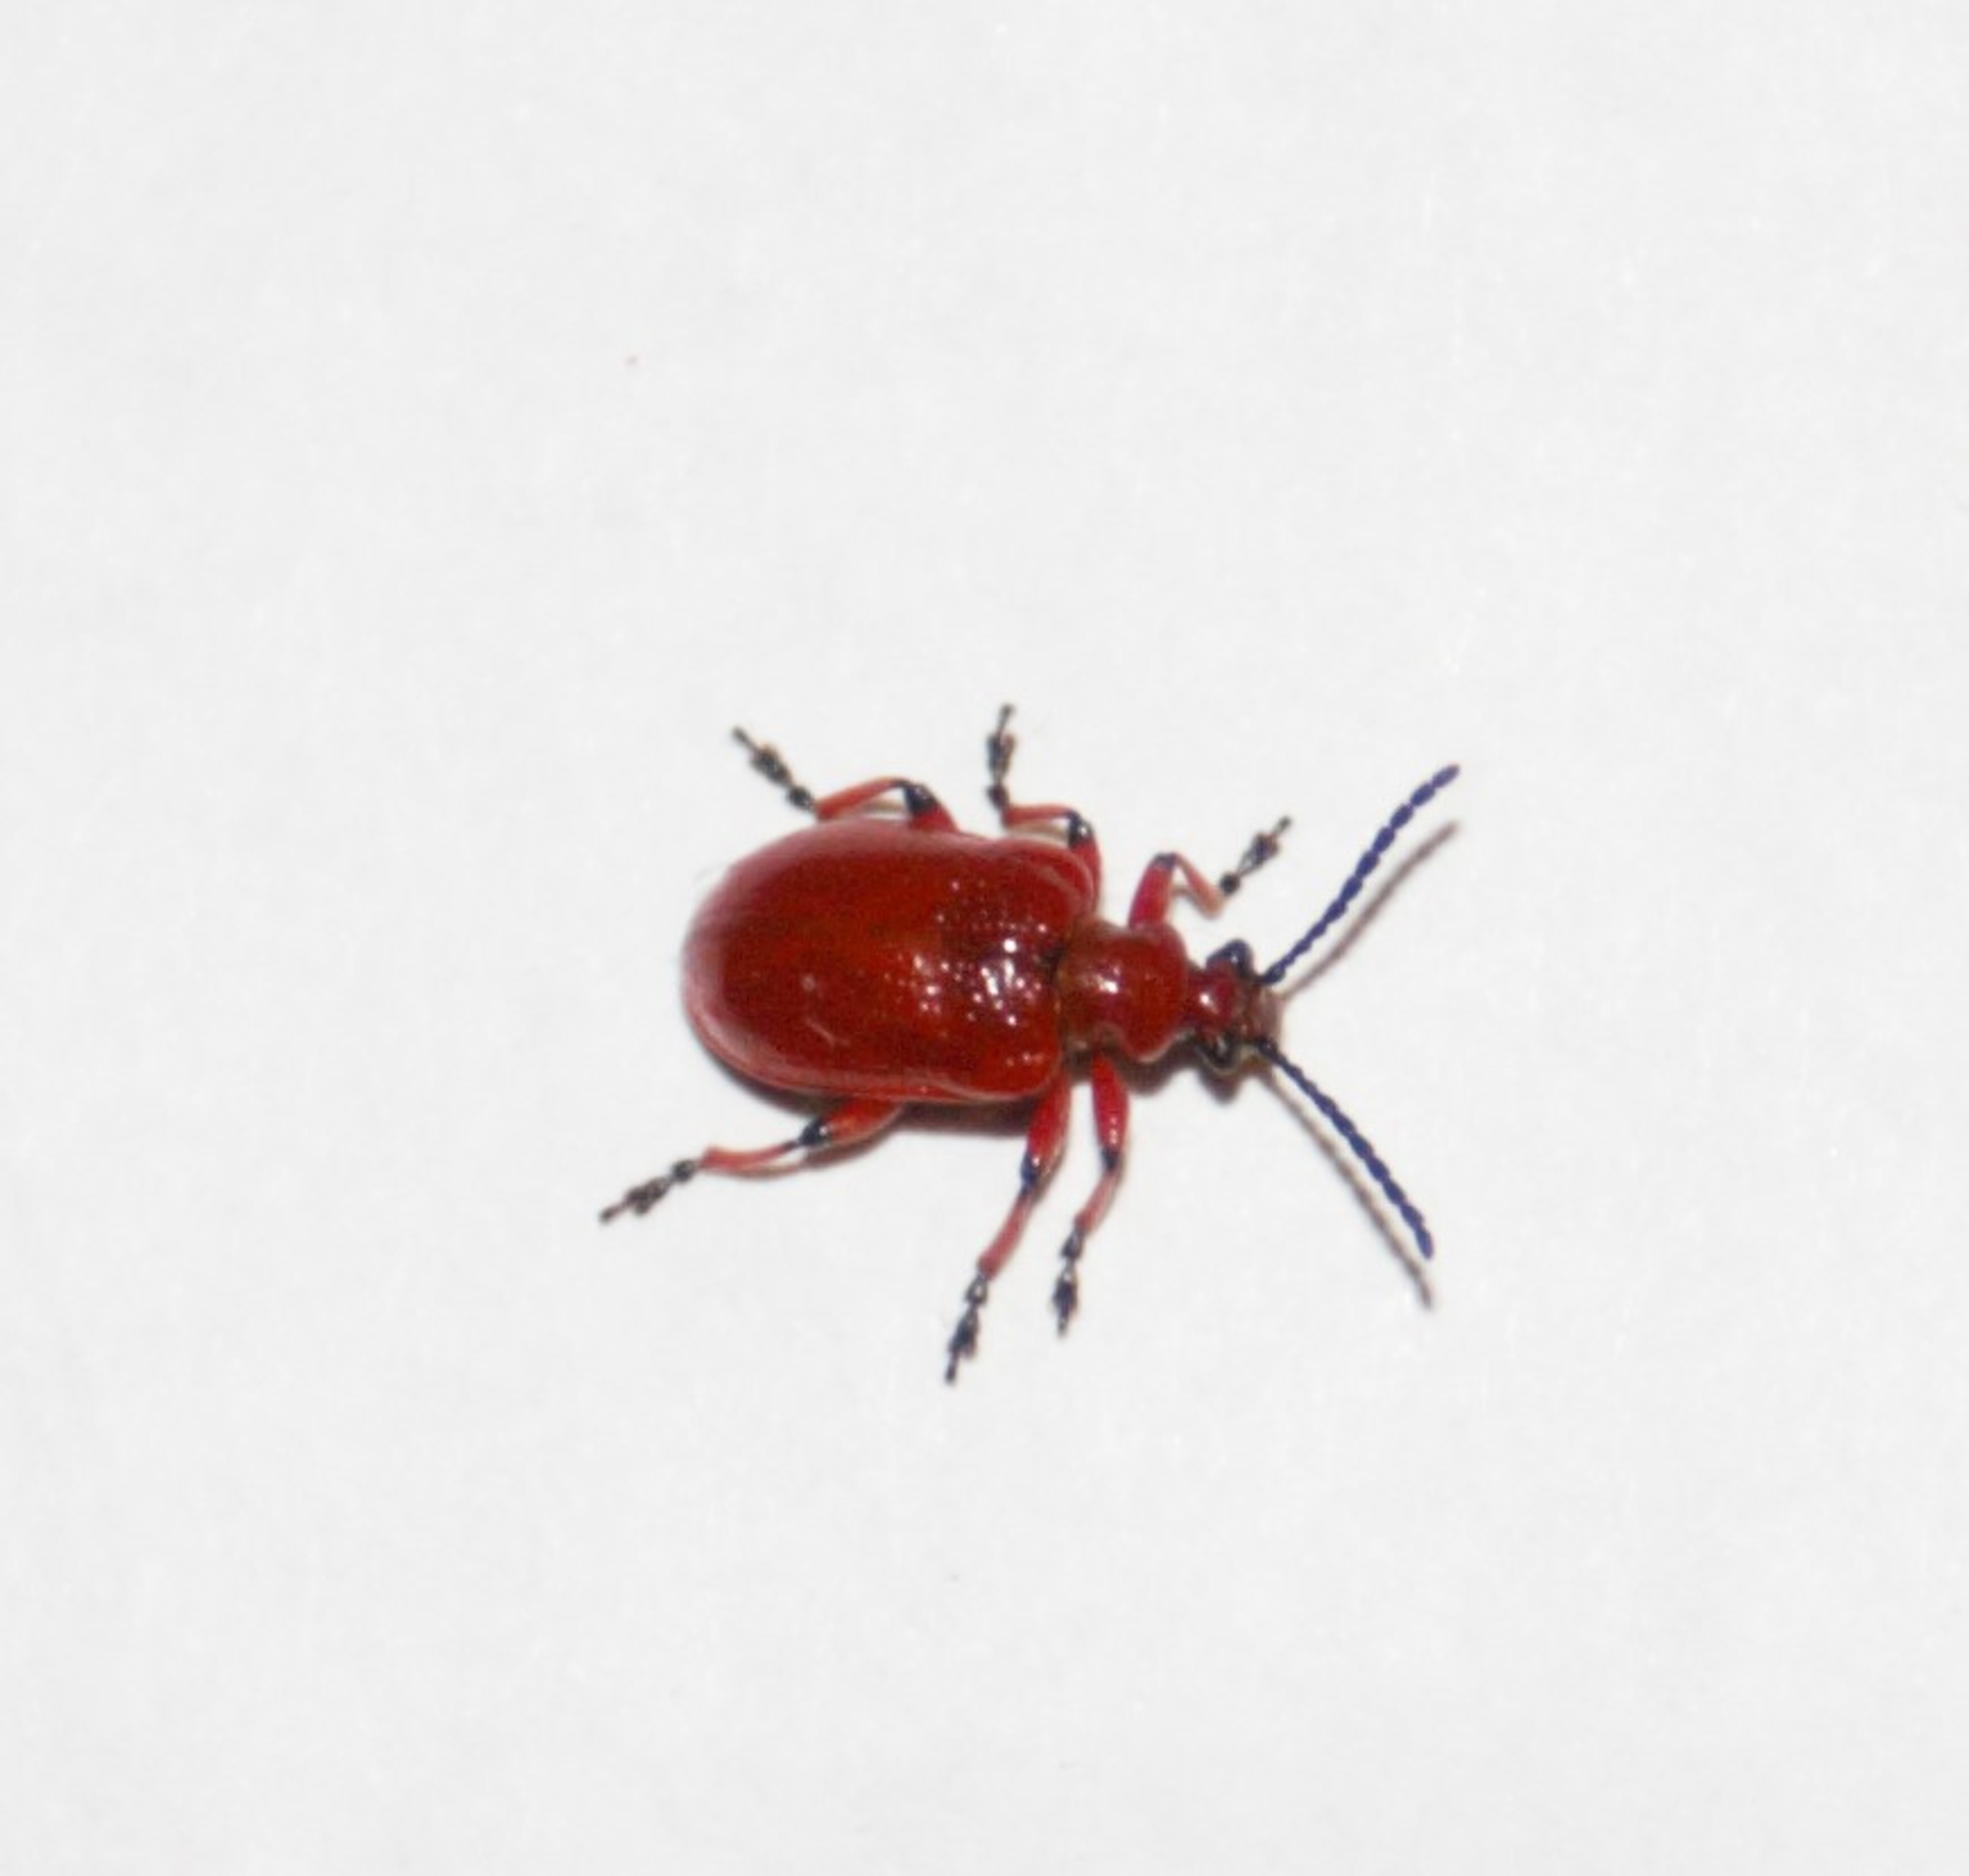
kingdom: Animalia
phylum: Arthropoda
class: Insecta
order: Coleoptera
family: Chrysomelidae
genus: Lilioceris
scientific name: Lilioceris merdigera
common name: Konvalbille
